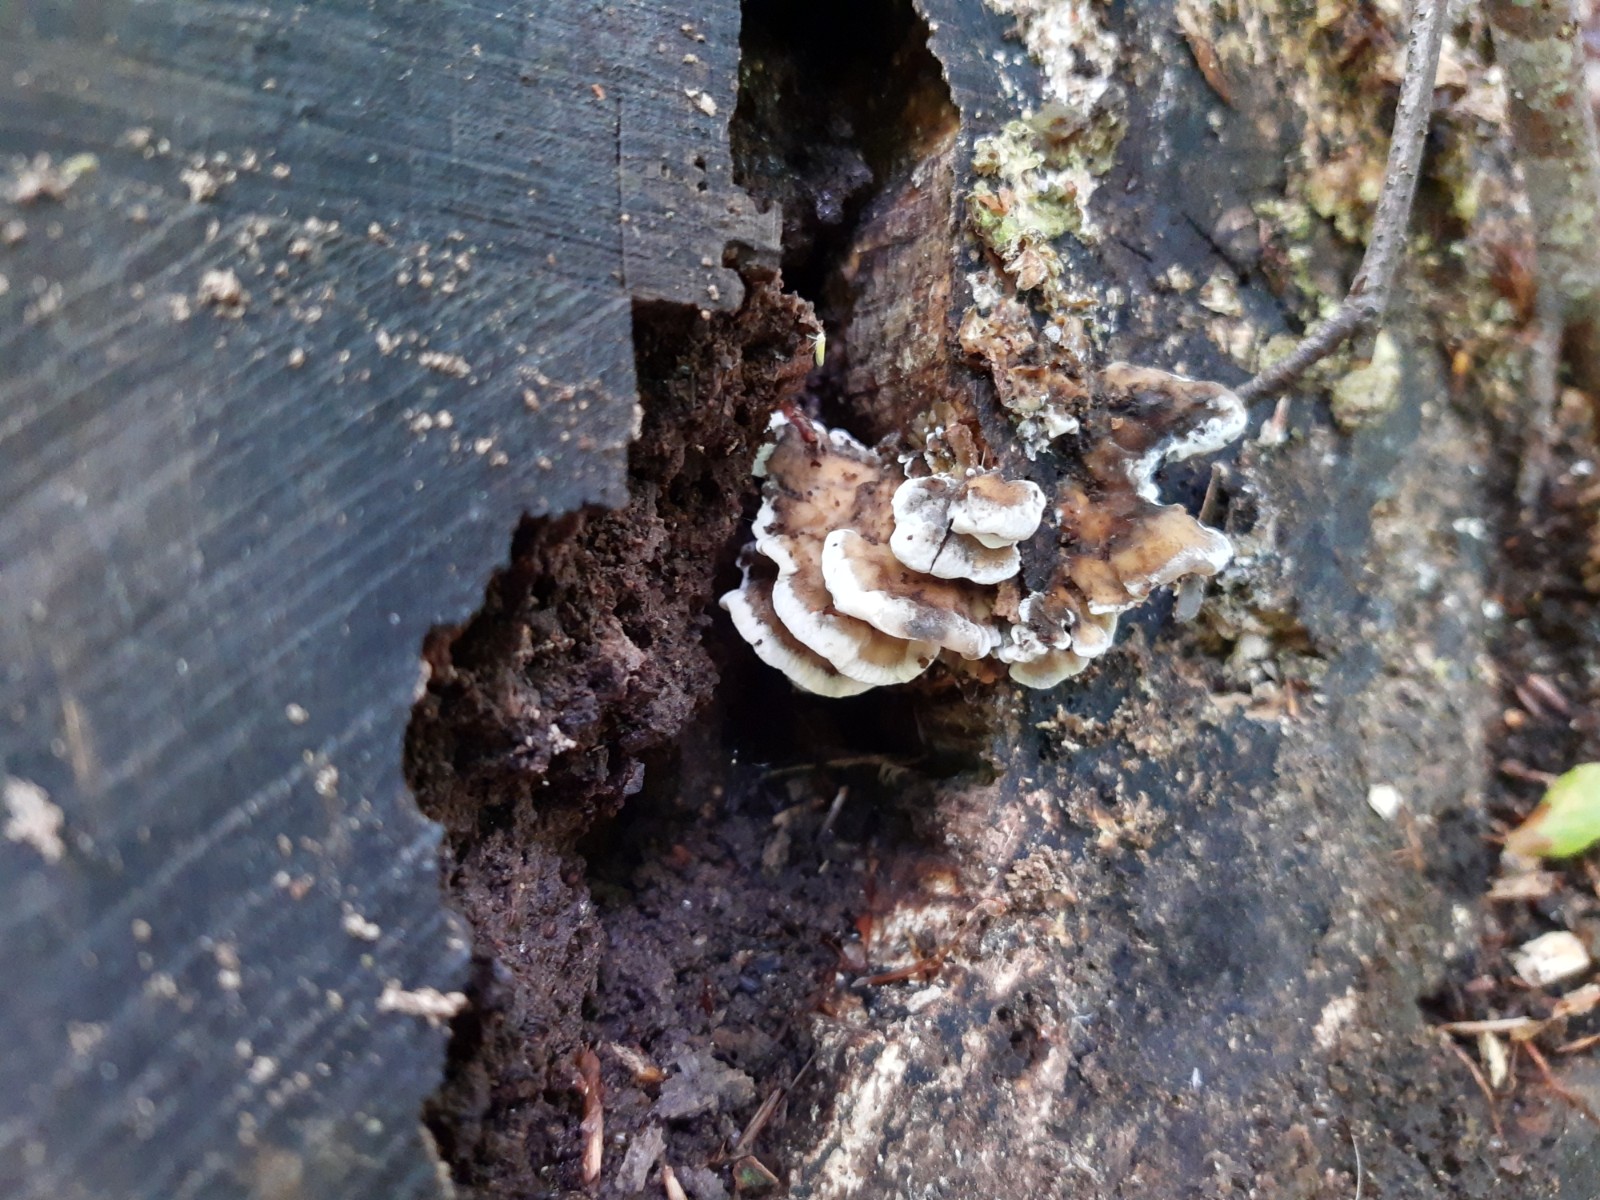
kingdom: Fungi
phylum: Basidiomycota
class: Agaricomycetes
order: Polyporales
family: Phanerochaetaceae
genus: Bjerkandera
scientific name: Bjerkandera adusta
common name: sveden sodporesvamp
